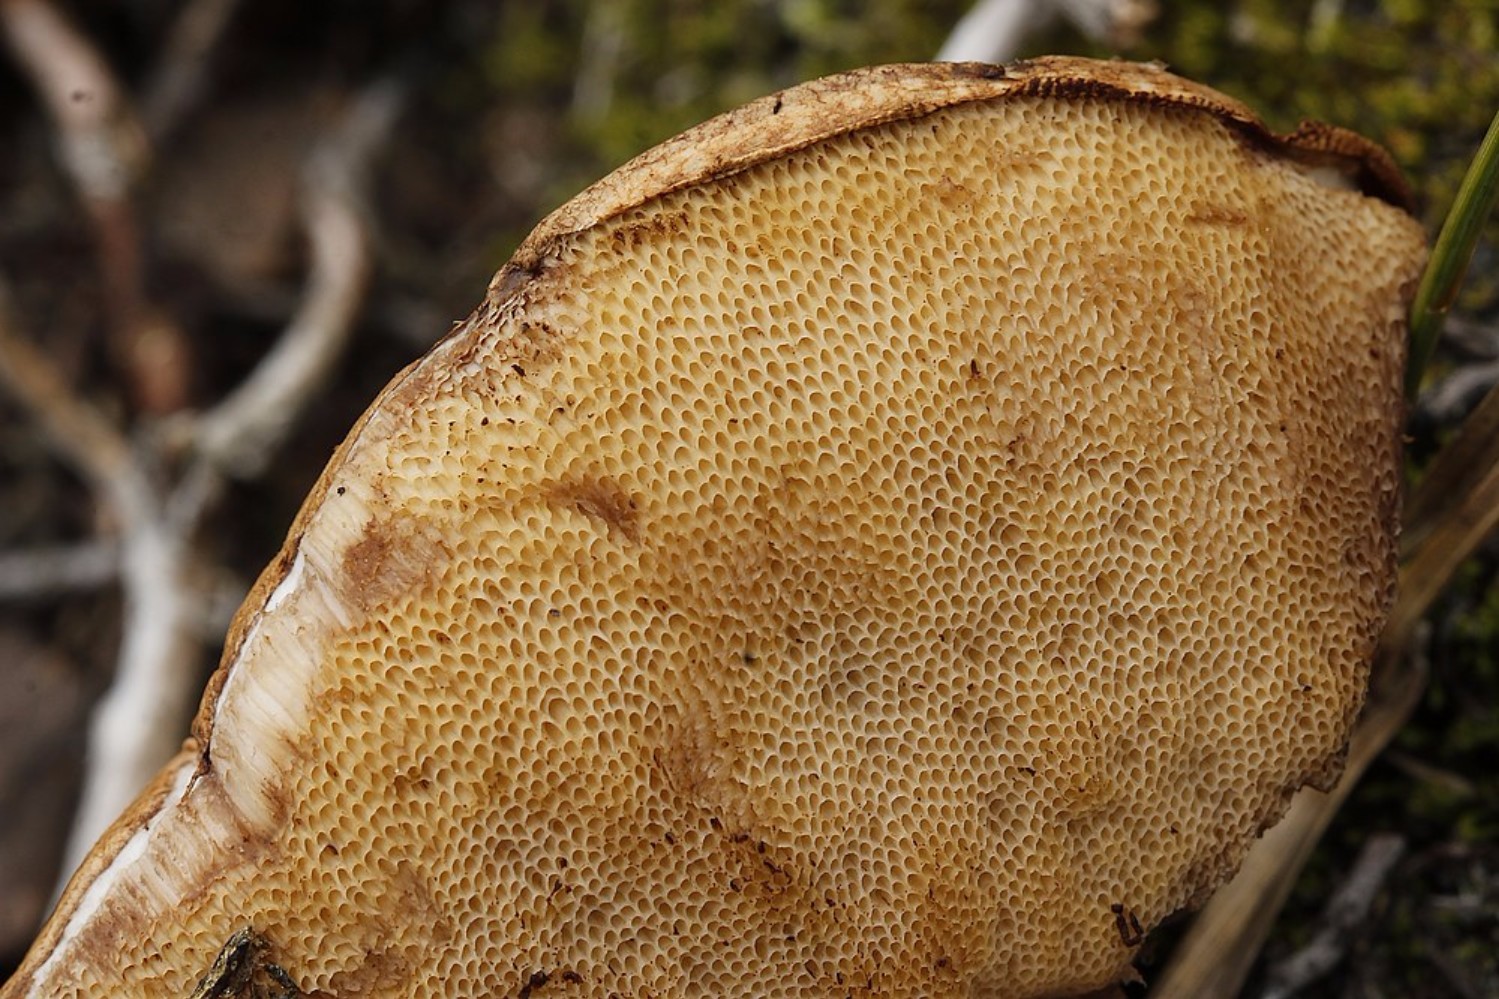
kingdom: Fungi
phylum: Basidiomycota
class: Agaricomycetes
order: Boletales
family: Boletaceae
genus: Leccinum
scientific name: Leccinum cyaneobasileucum
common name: almindelig skælrørhat
